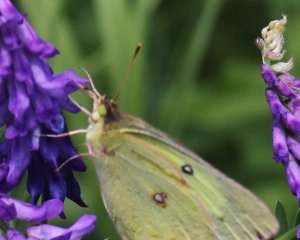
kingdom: Animalia
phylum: Arthropoda
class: Insecta
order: Lepidoptera
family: Pieridae
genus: Colias
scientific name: Colias philodice
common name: Clouded Sulphur
